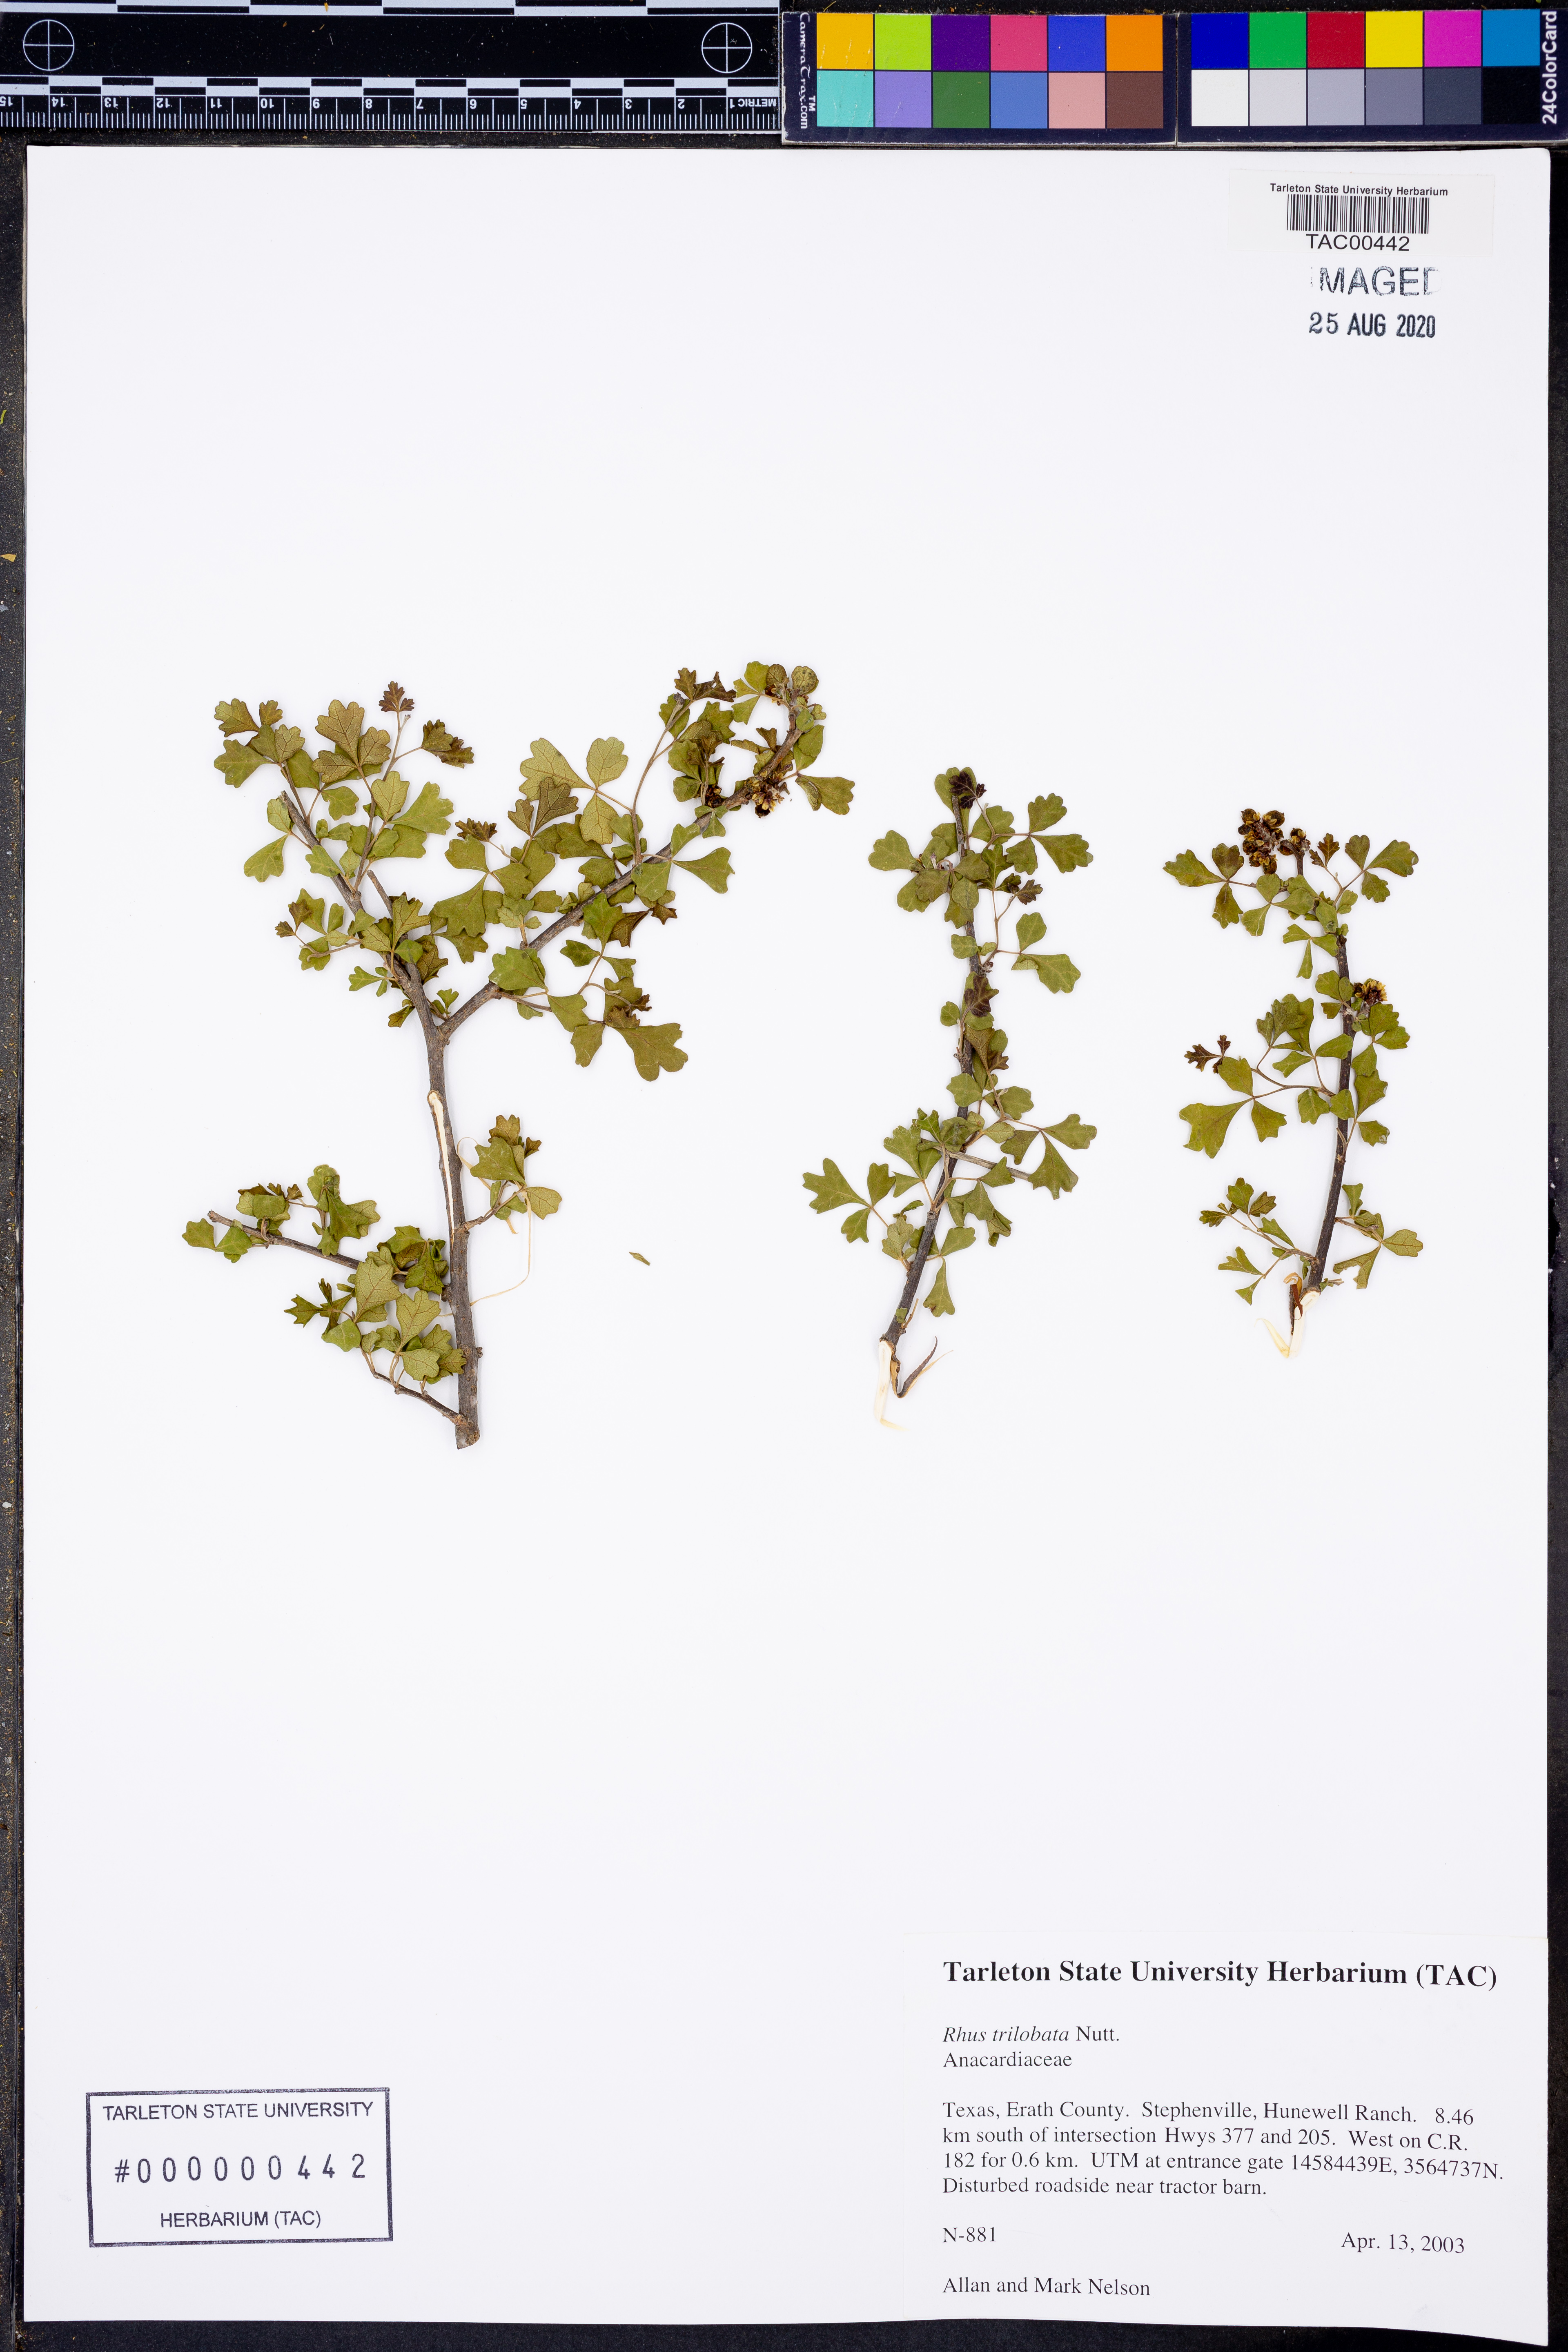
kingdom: Plantae
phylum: Tracheophyta
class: Magnoliopsida
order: Sapindales
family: Anacardiaceae
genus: Rhus
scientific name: Rhus trilobata
